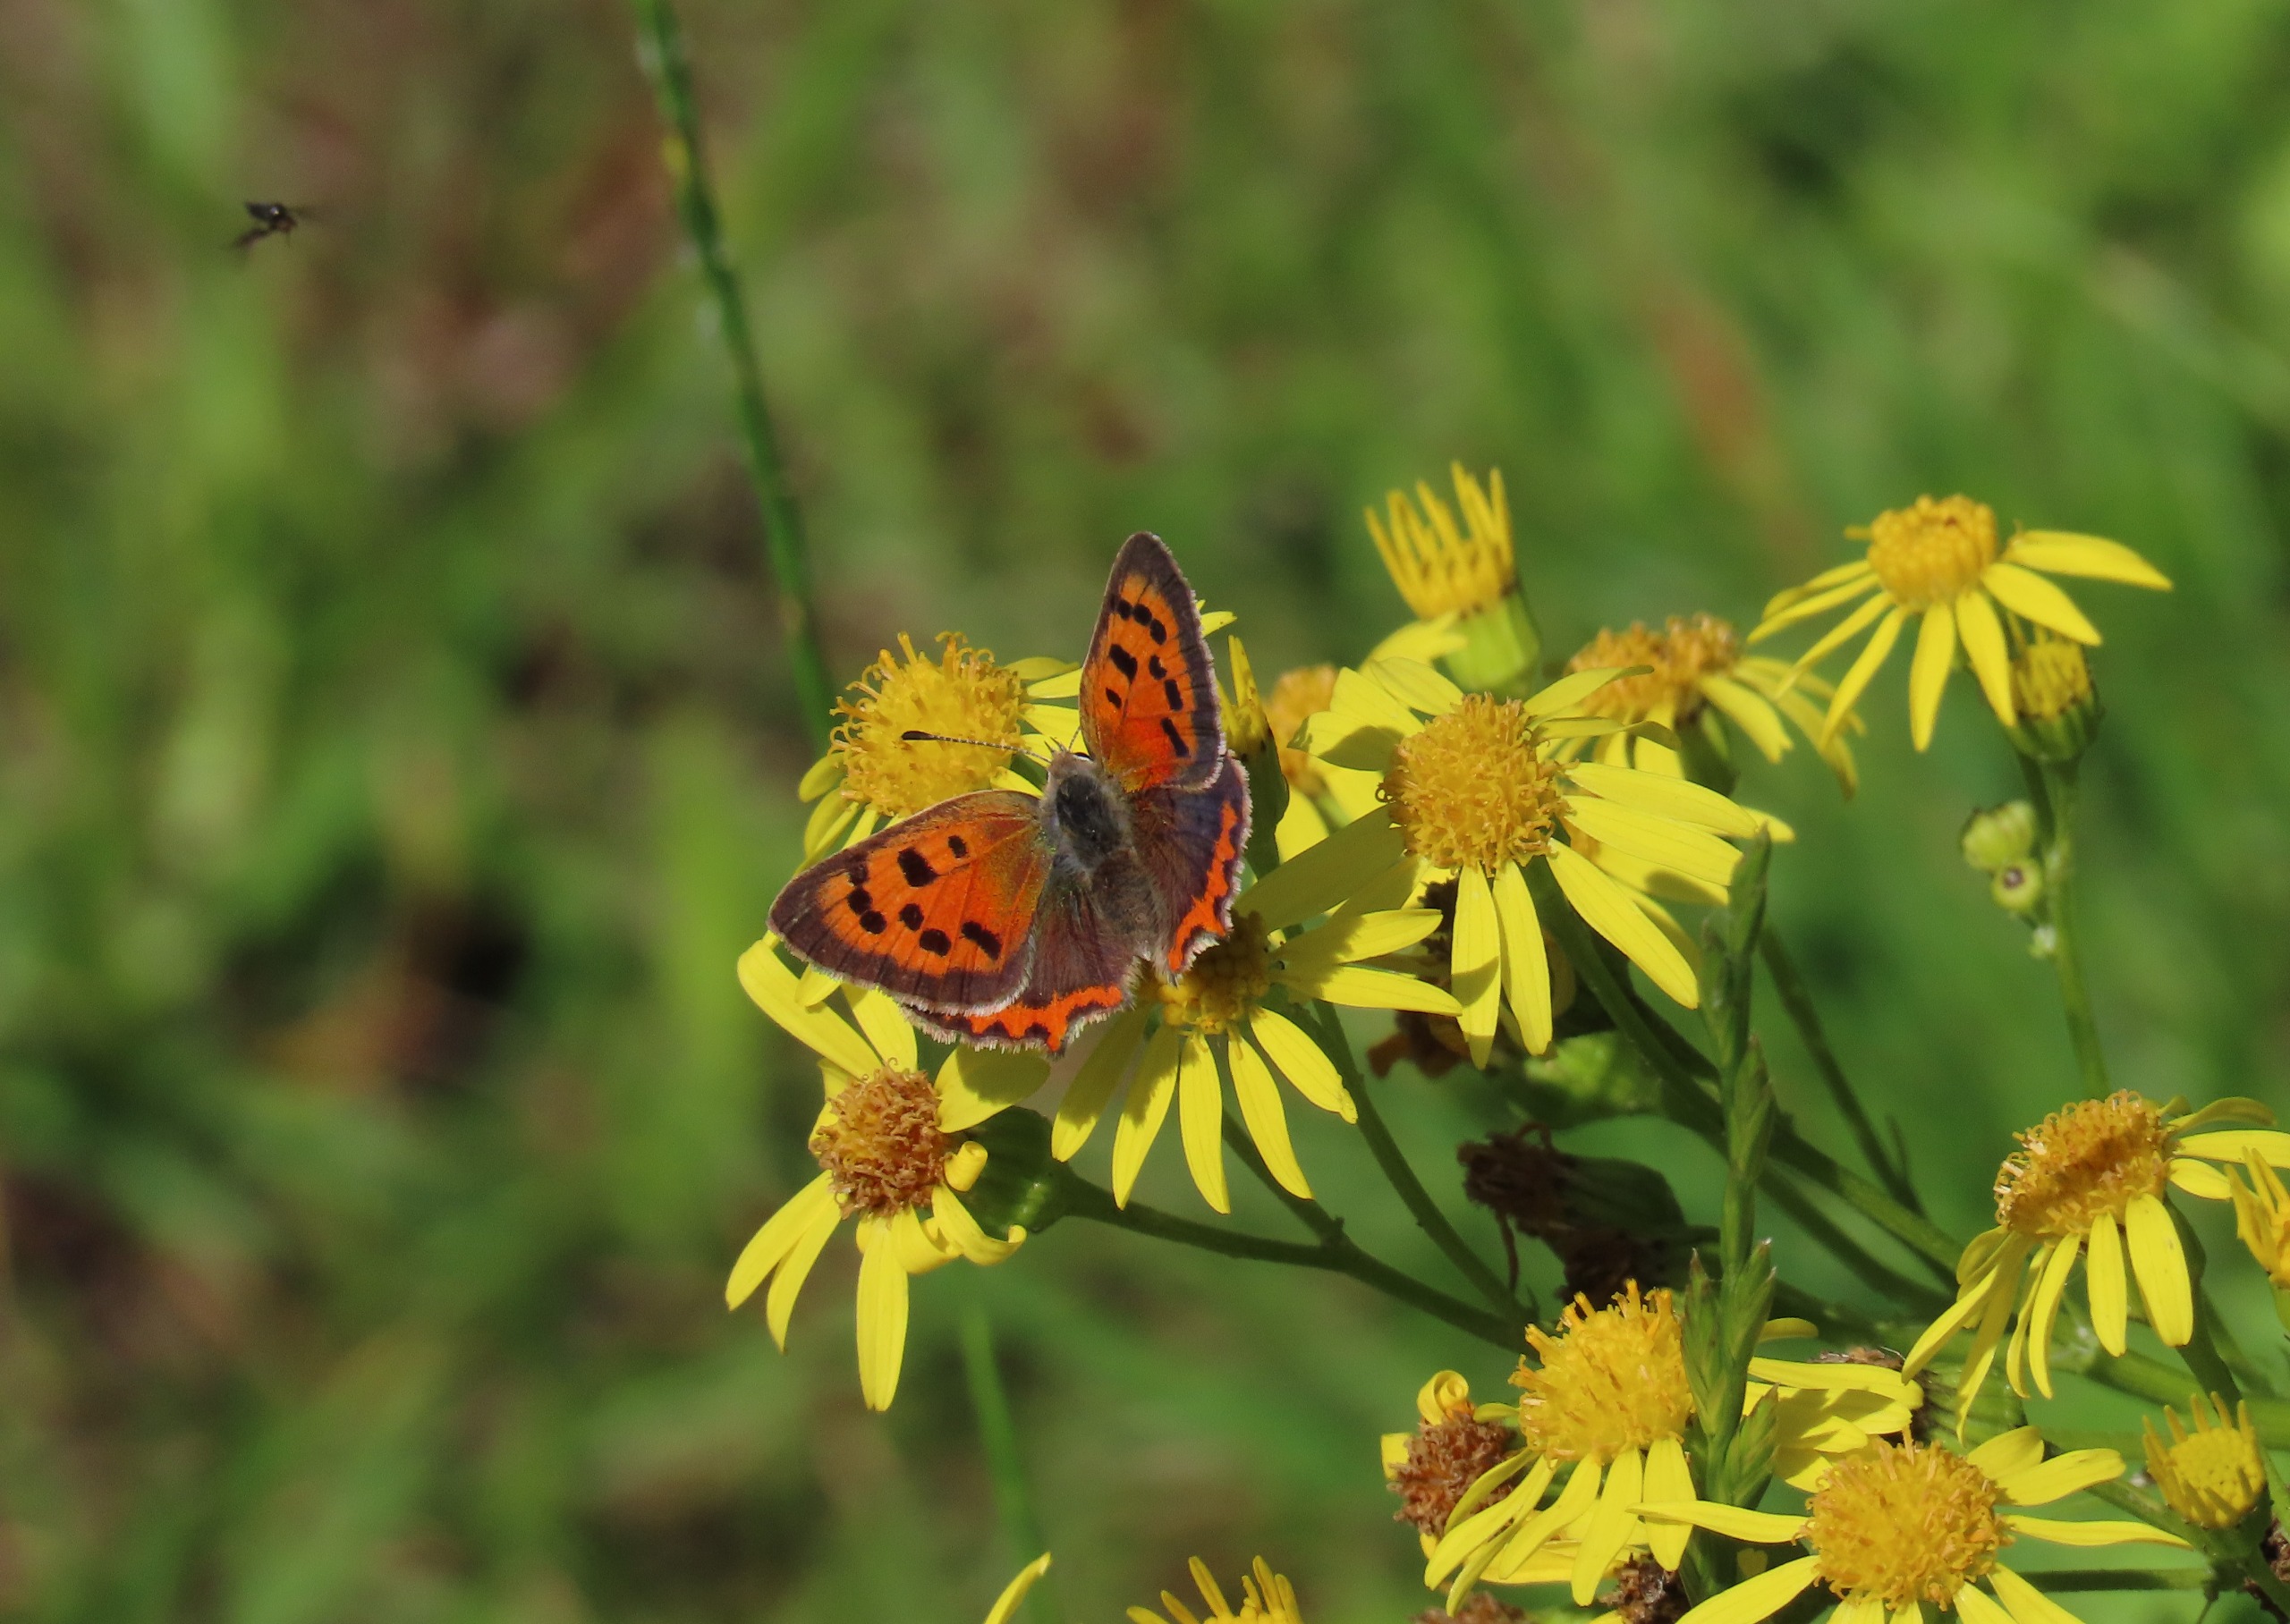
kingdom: Animalia
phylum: Arthropoda
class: Insecta
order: Lepidoptera
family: Lycaenidae
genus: Lycaena
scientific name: Lycaena phlaeas
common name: Lille ildfugl
